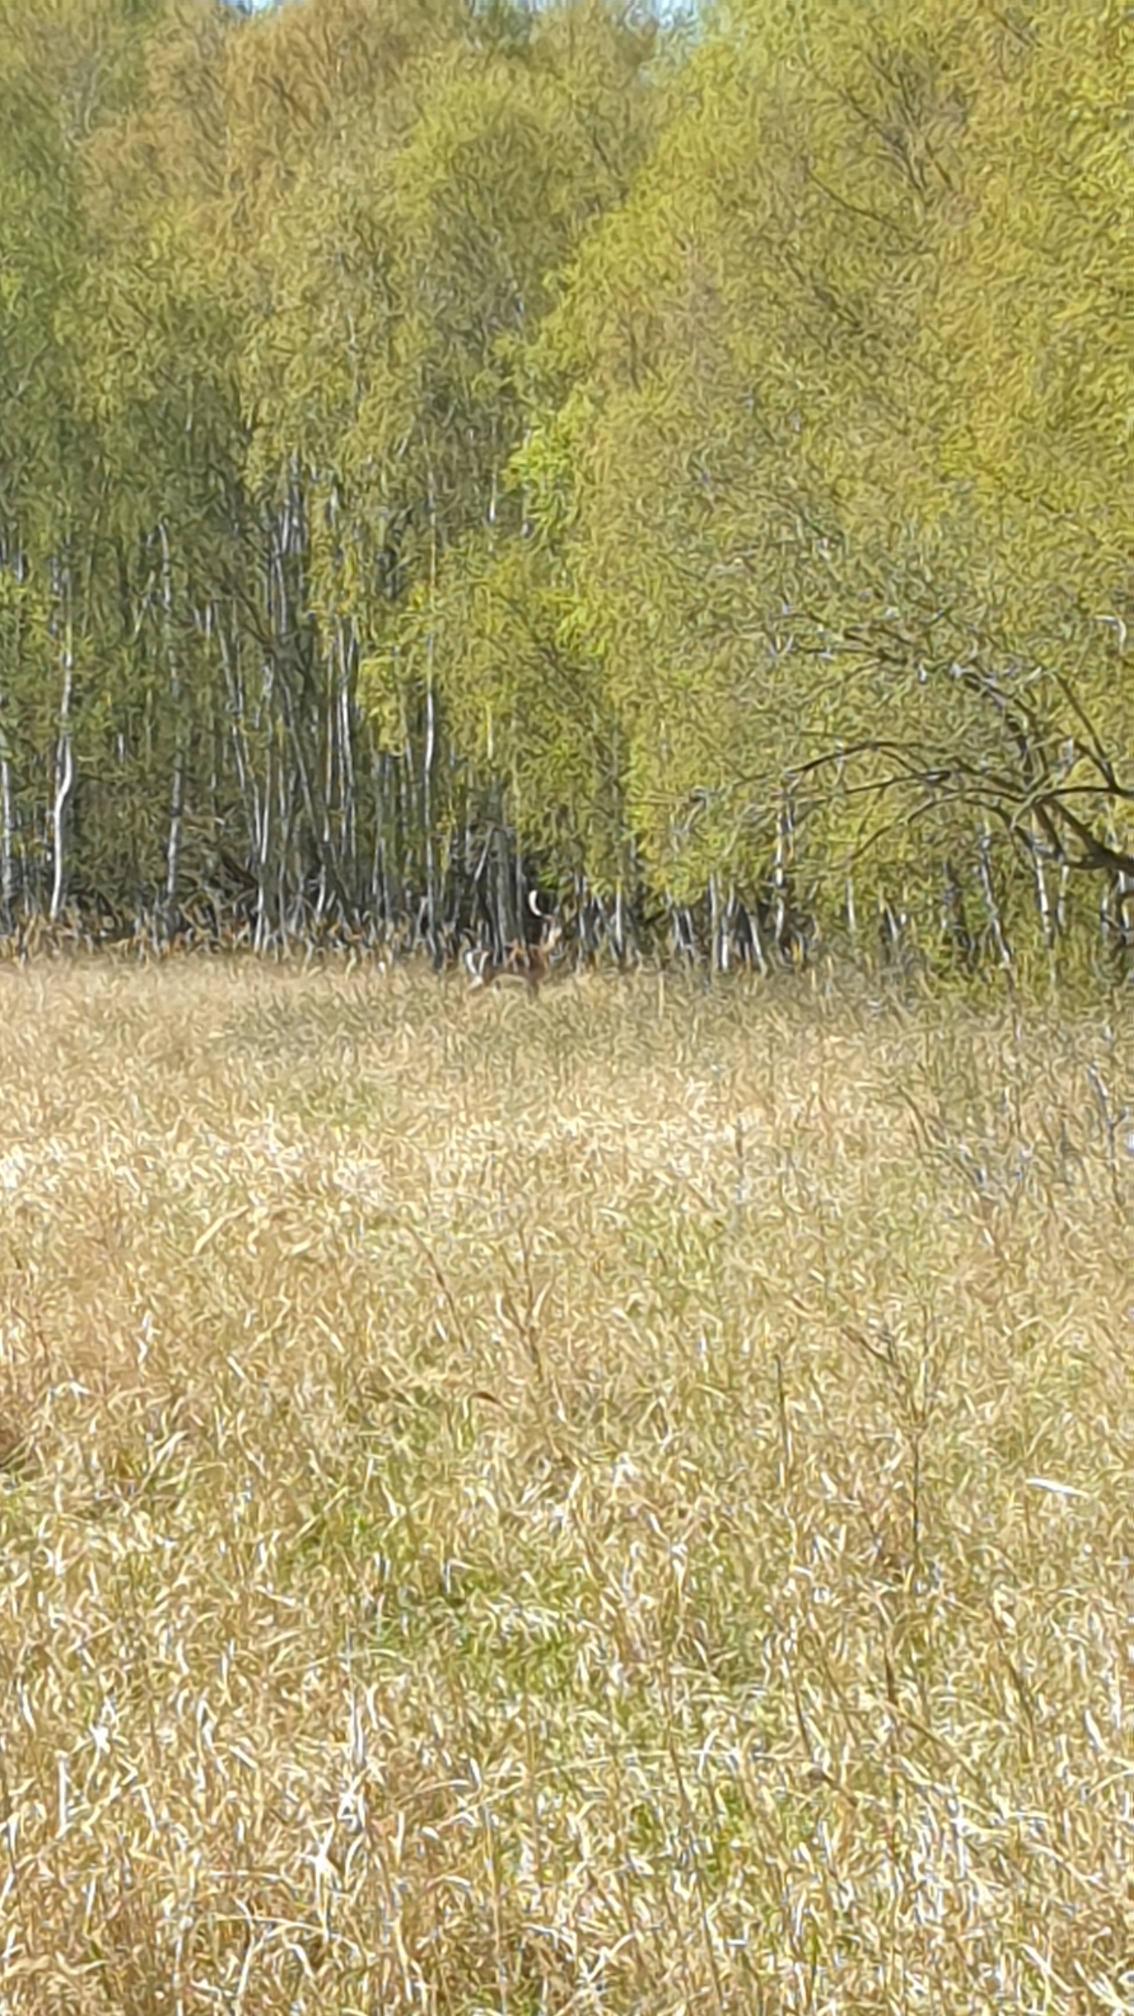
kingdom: Animalia
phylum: Chordata
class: Mammalia
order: Artiodactyla
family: Cervidae
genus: Dama
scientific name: Dama dama
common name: Dådyr
